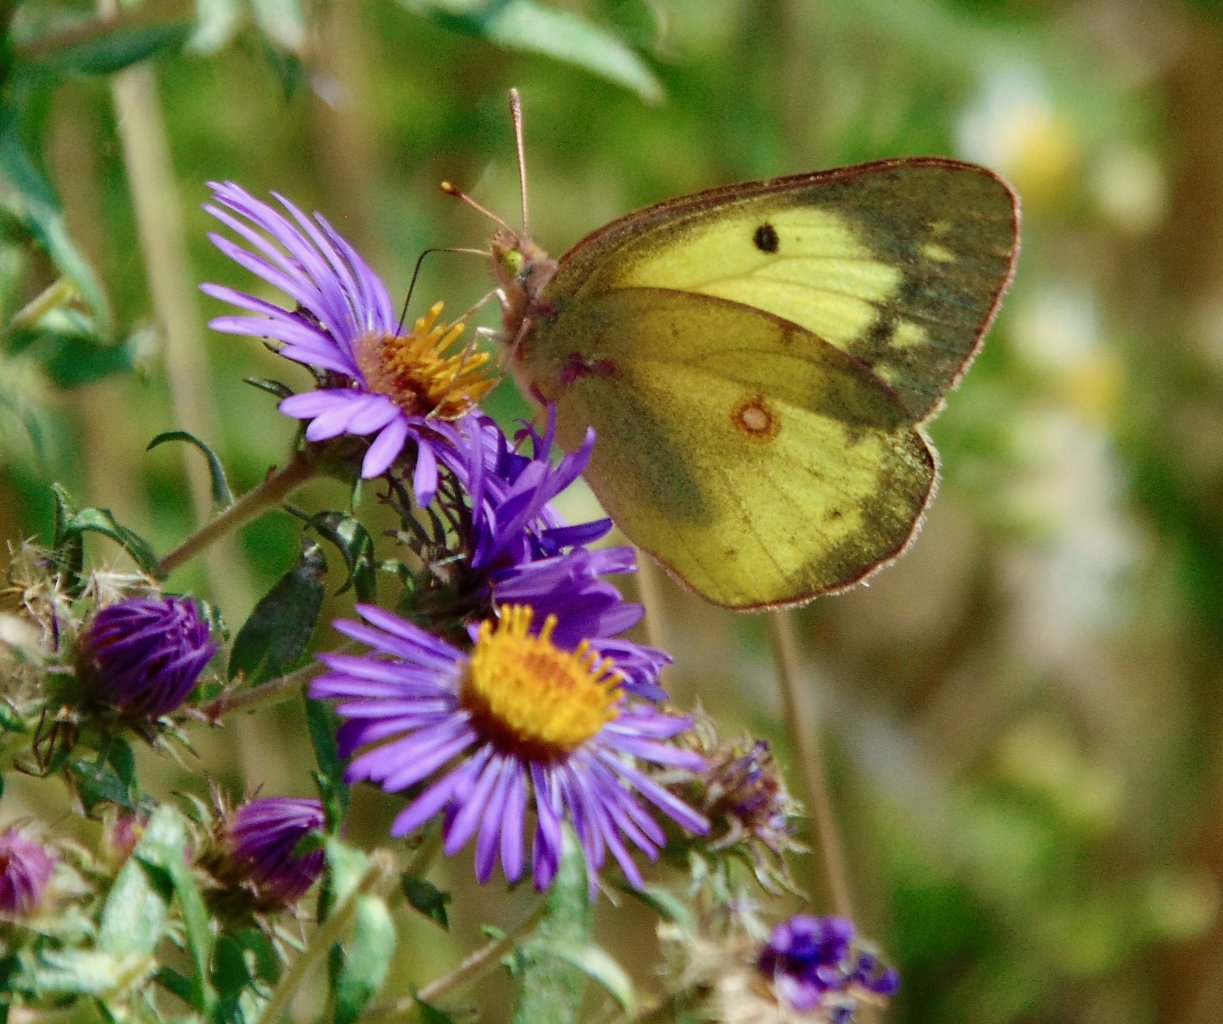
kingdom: Animalia
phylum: Arthropoda
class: Insecta
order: Lepidoptera
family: Pieridae
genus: Colias
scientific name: Colias philodice
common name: Clouded Sulphur
